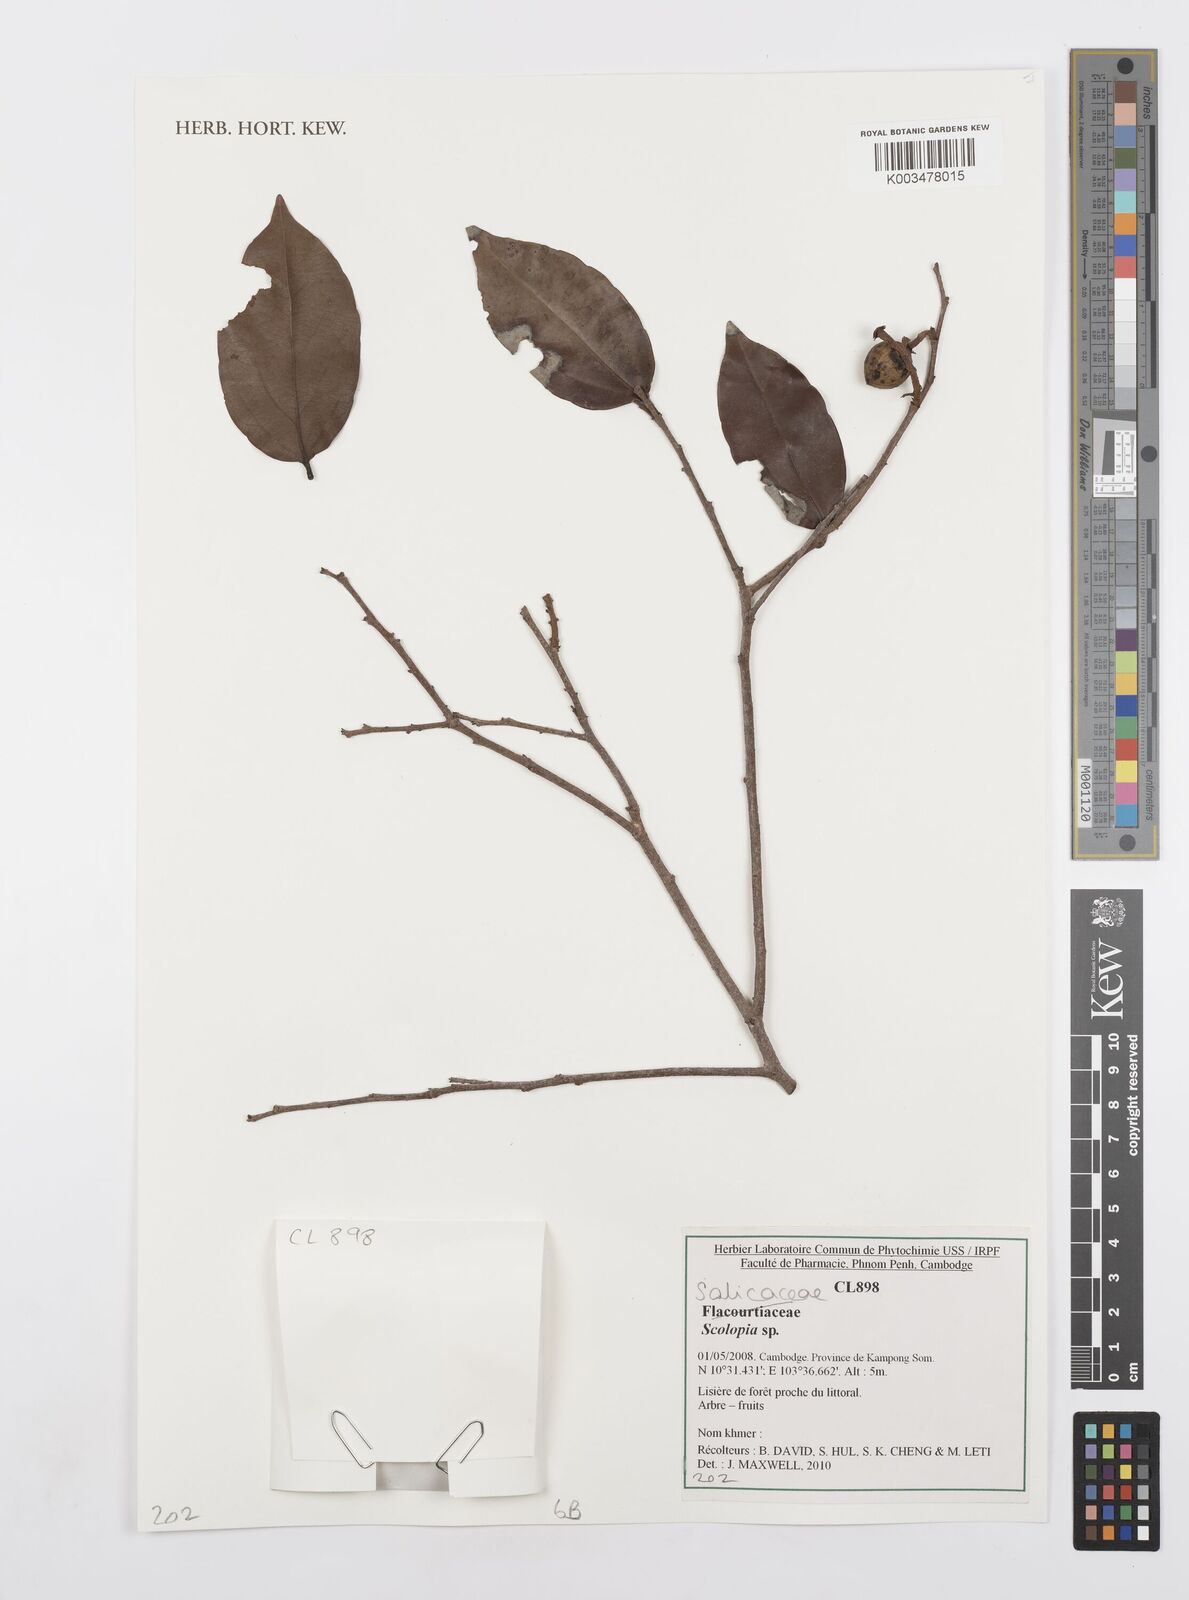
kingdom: Plantae
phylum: Tracheophyta
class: Magnoliopsida
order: Malpighiales
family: Salicaceae
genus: Scolopia
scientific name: Scolopia
